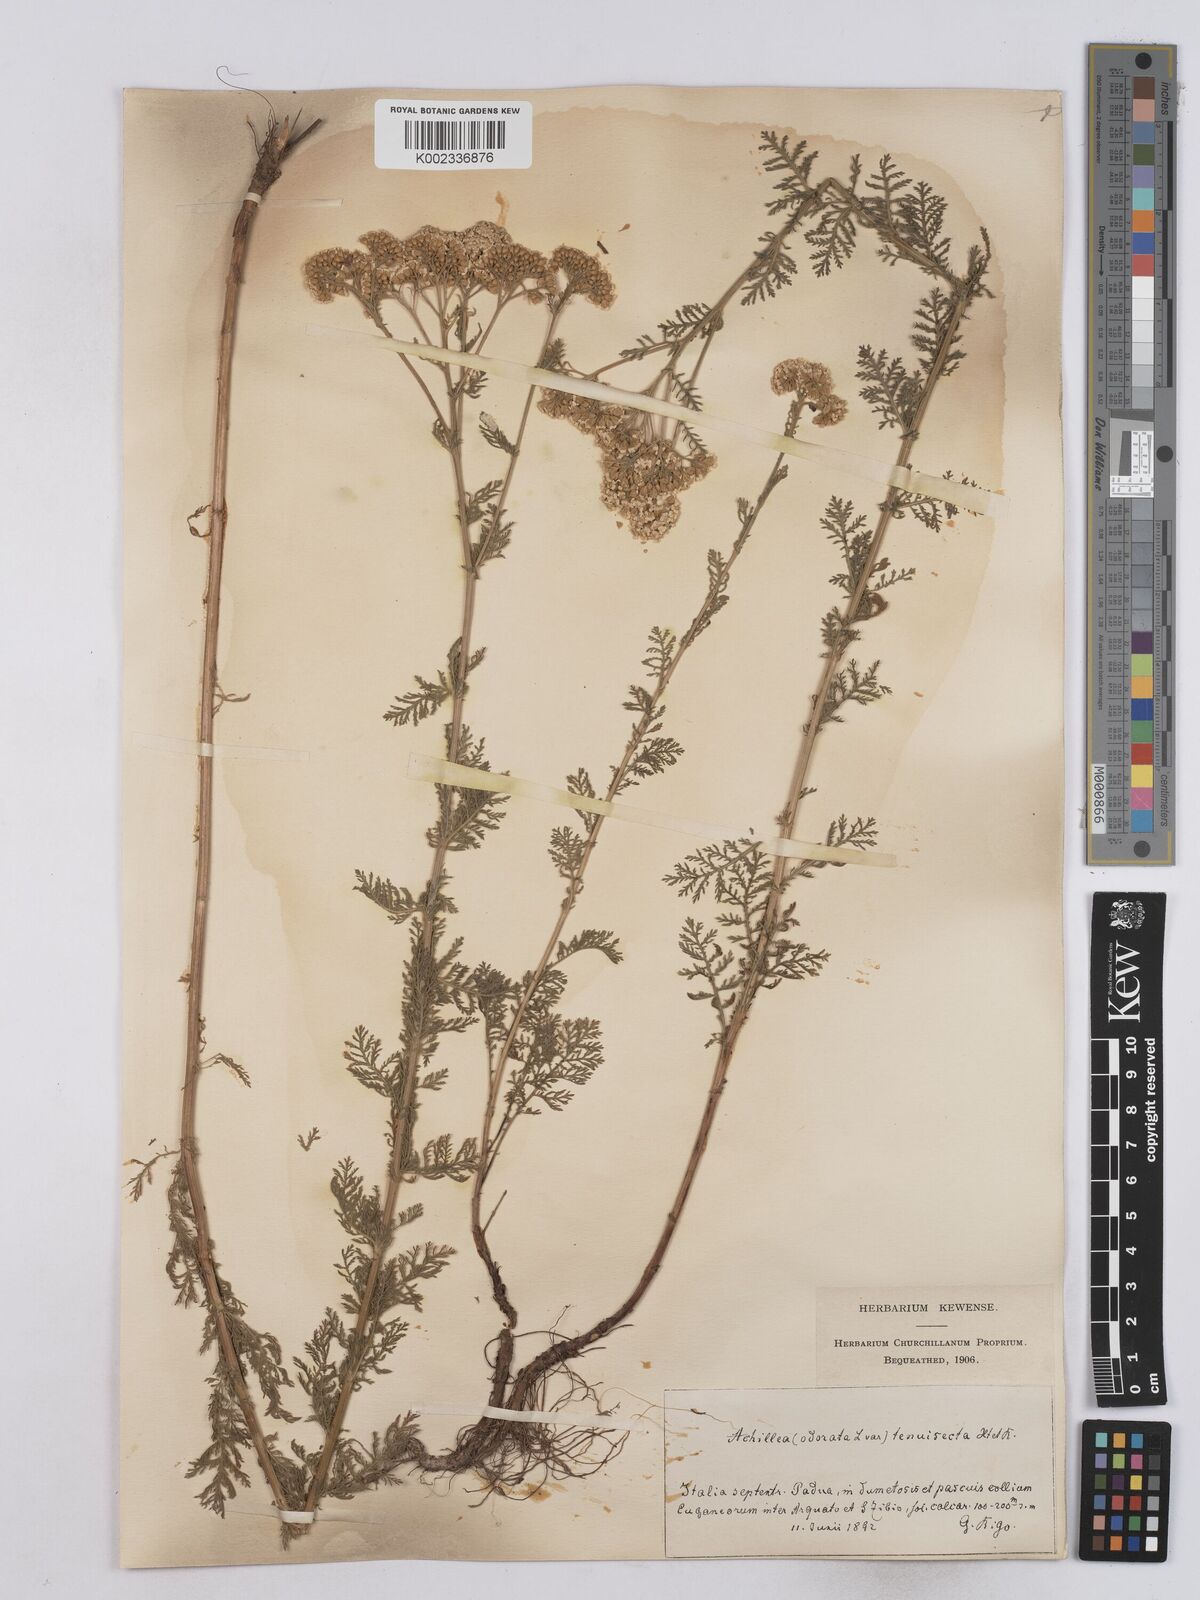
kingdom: Plantae
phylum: Tracheophyta
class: Magnoliopsida
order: Asterales
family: Asteraceae
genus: Achillea
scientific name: Achillea odorata
